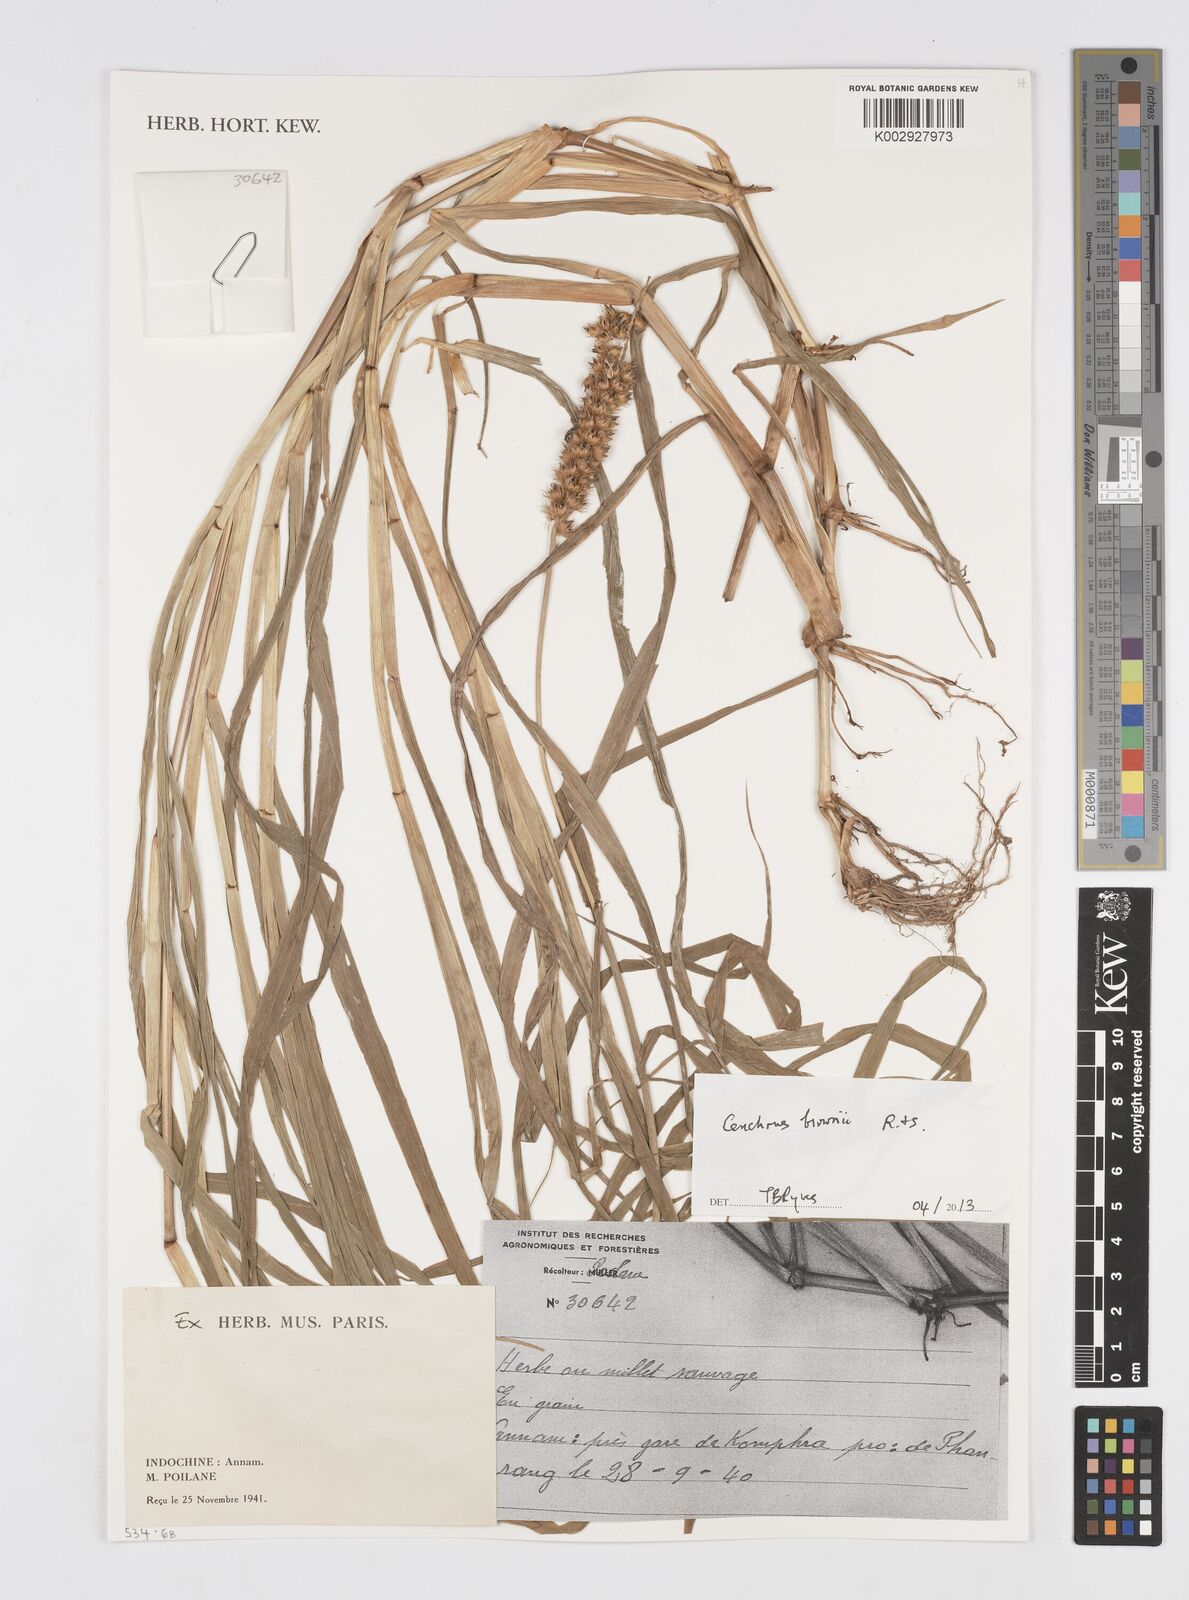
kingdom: Plantae
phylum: Tracheophyta
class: Liliopsida
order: Poales
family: Poaceae
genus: Cenchrus
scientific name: Cenchrus brownii
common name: Slim-bristle sandbur
